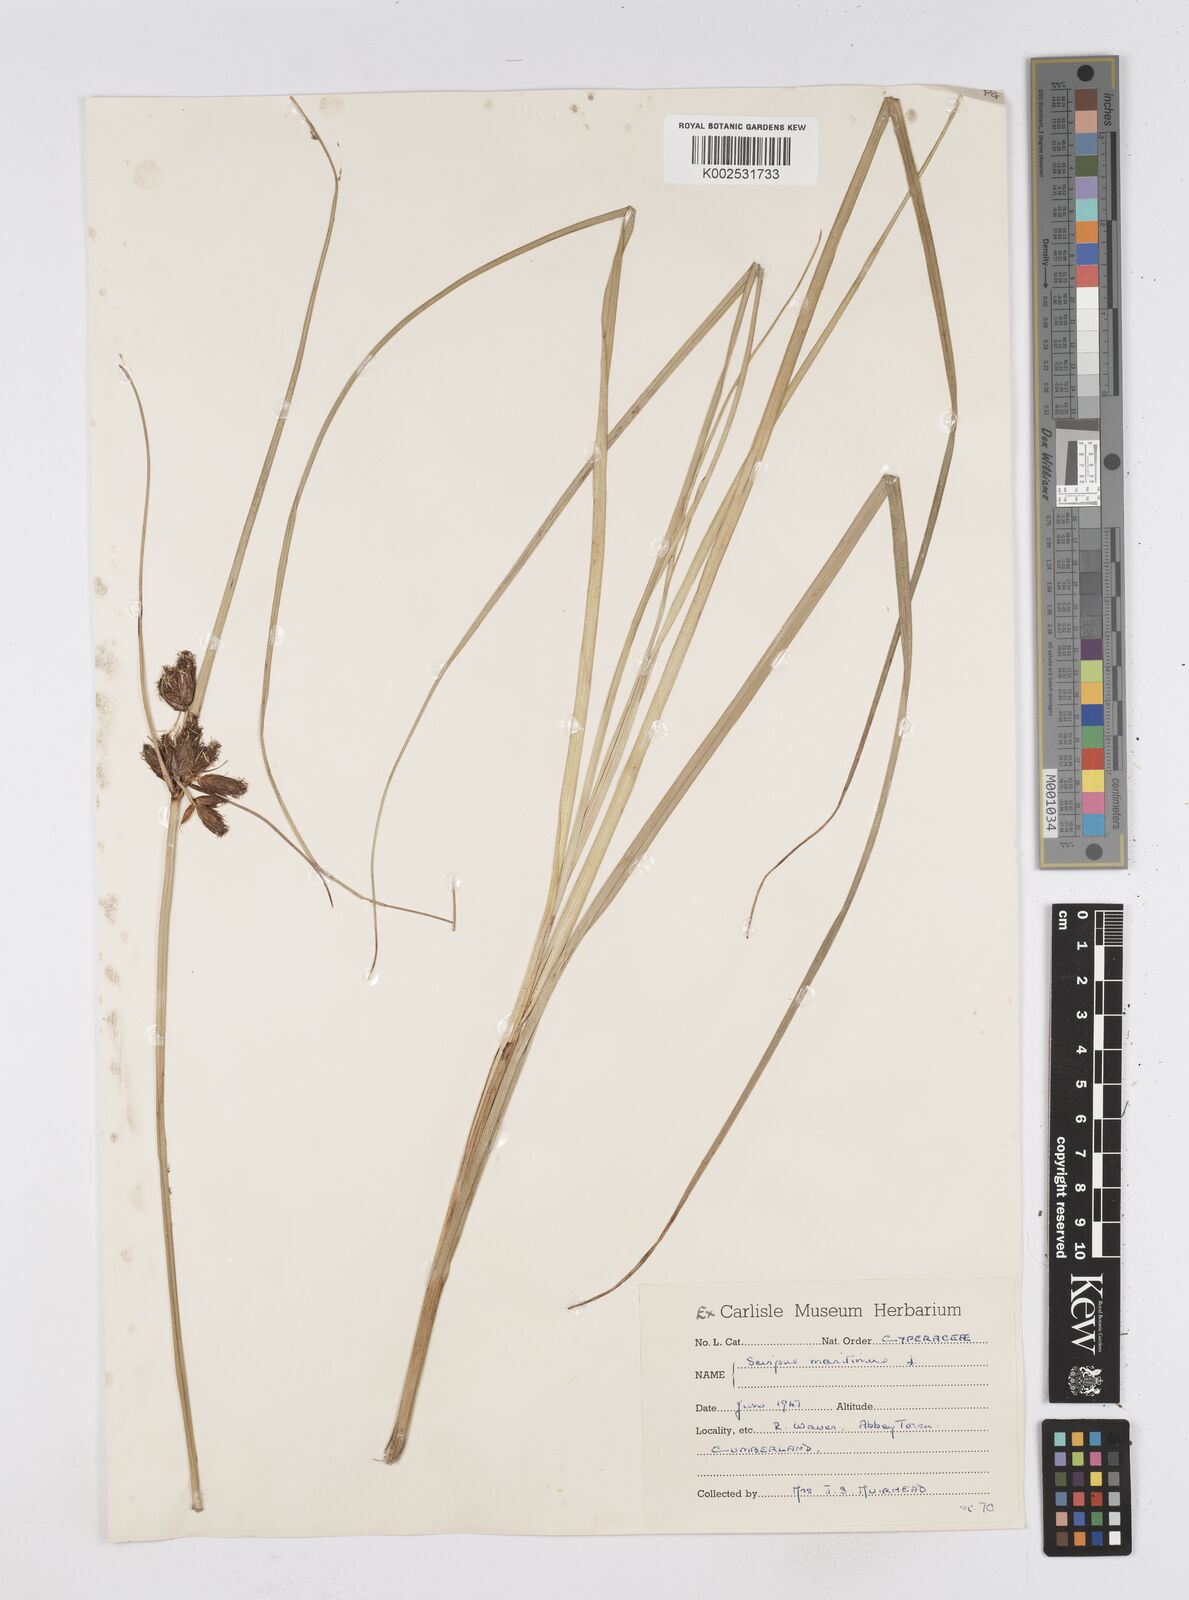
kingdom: Plantae
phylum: Tracheophyta
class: Liliopsida
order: Poales
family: Cyperaceae
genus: Bolboschoenus
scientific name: Bolboschoenus maritimus
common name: Sea club-rush
